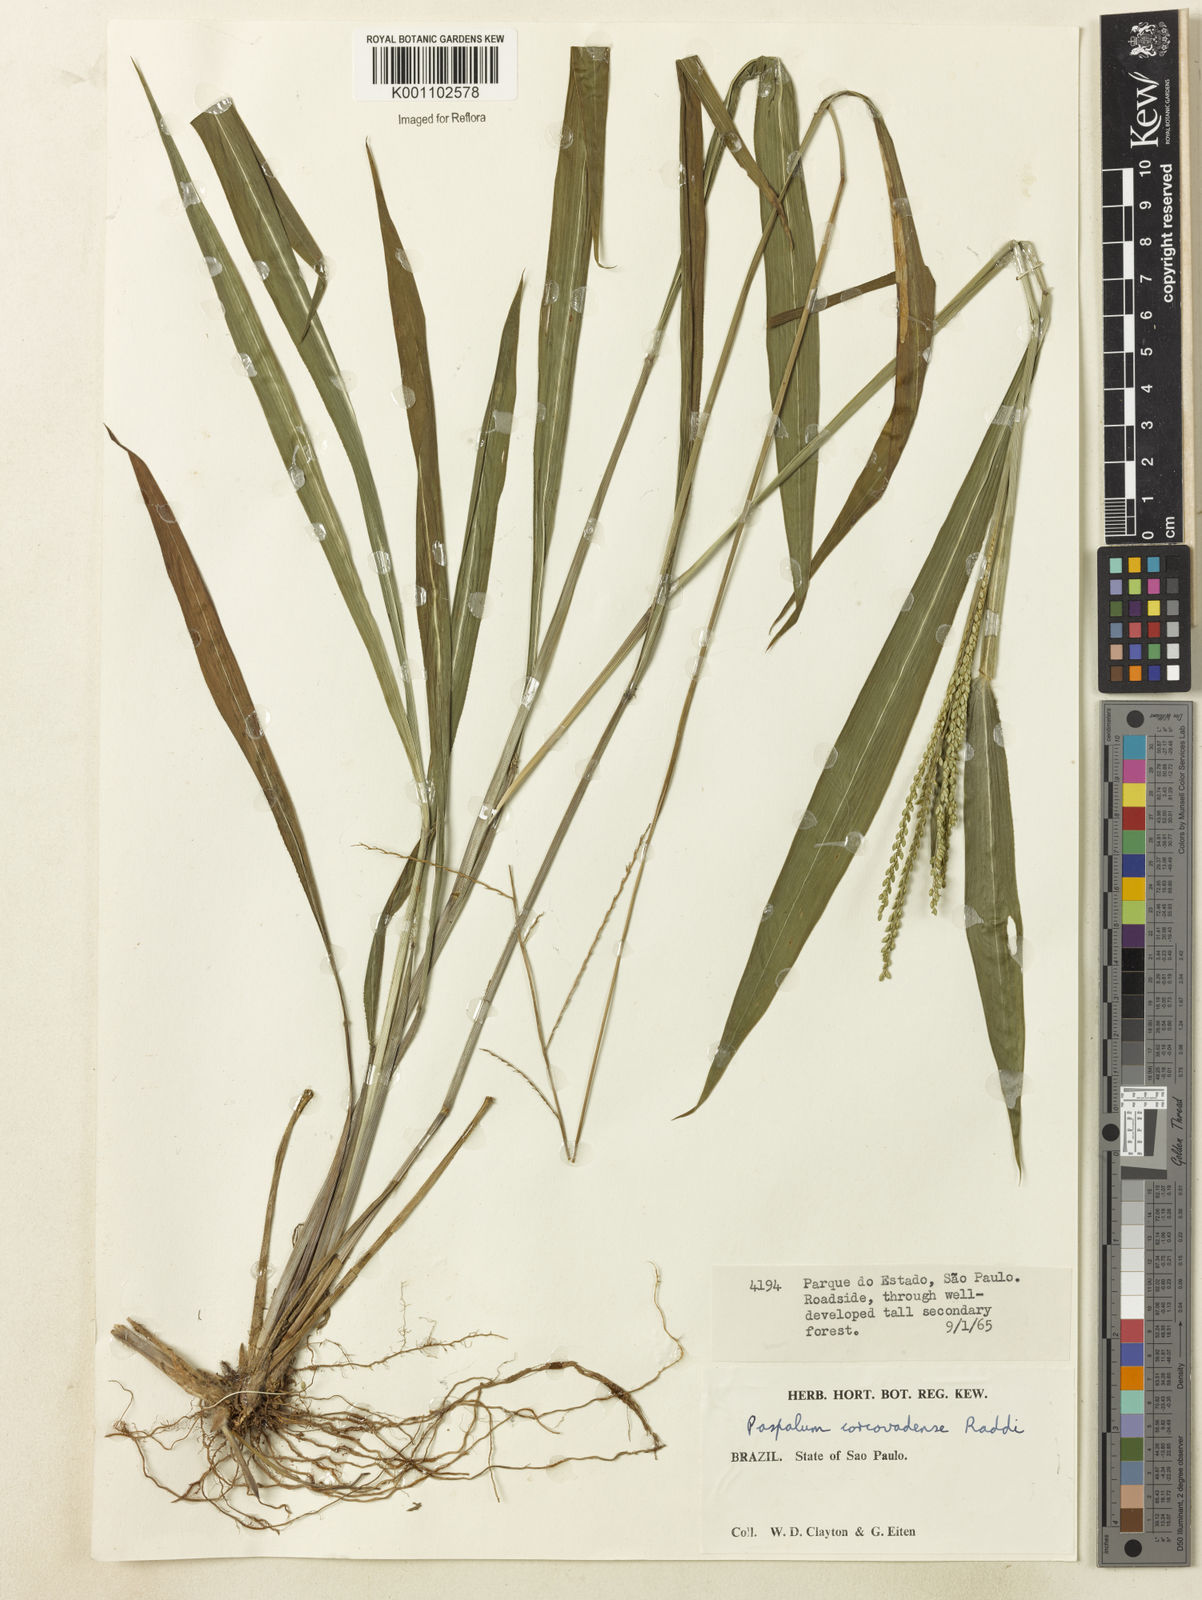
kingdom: Plantae
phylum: Tracheophyta
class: Liliopsida
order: Poales
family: Poaceae
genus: Paspalum
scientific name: Paspalum corcovadense
